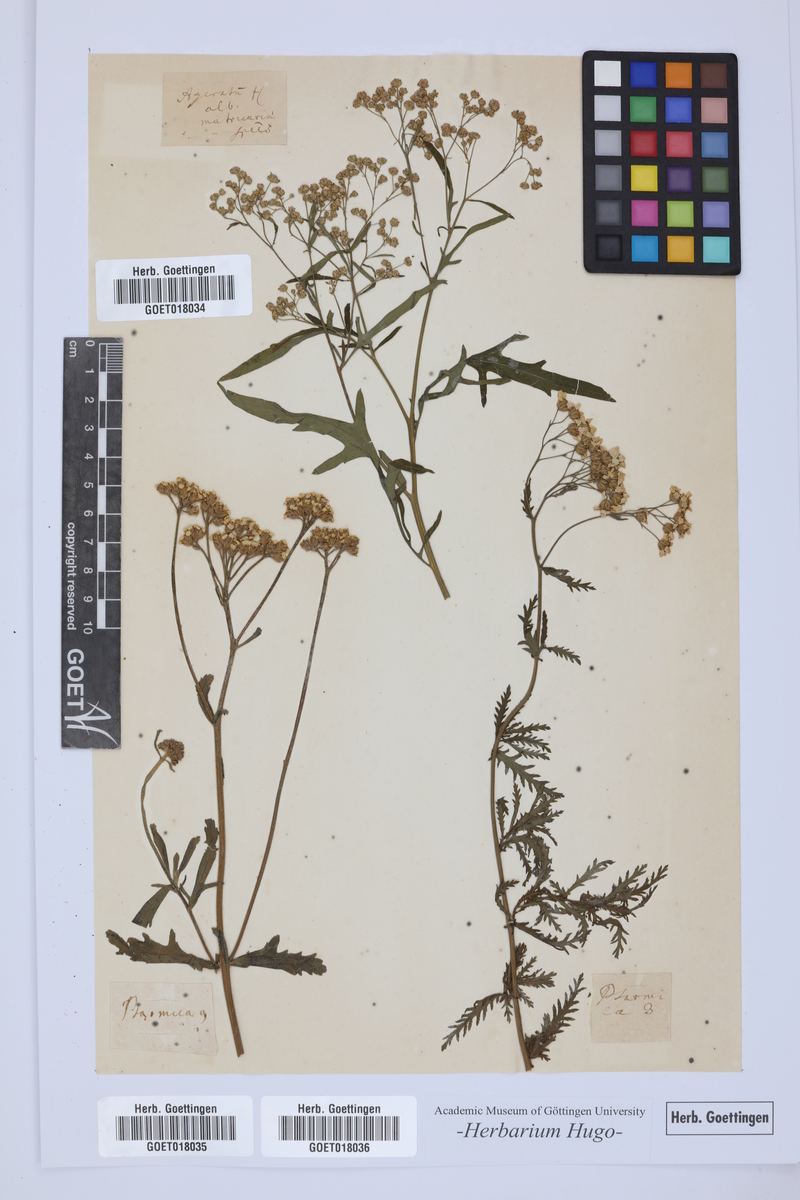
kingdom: Plantae
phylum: Tracheophyta
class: Magnoliopsida
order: Asterales
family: Asteraceae
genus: Ptarmica
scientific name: Ptarmica
